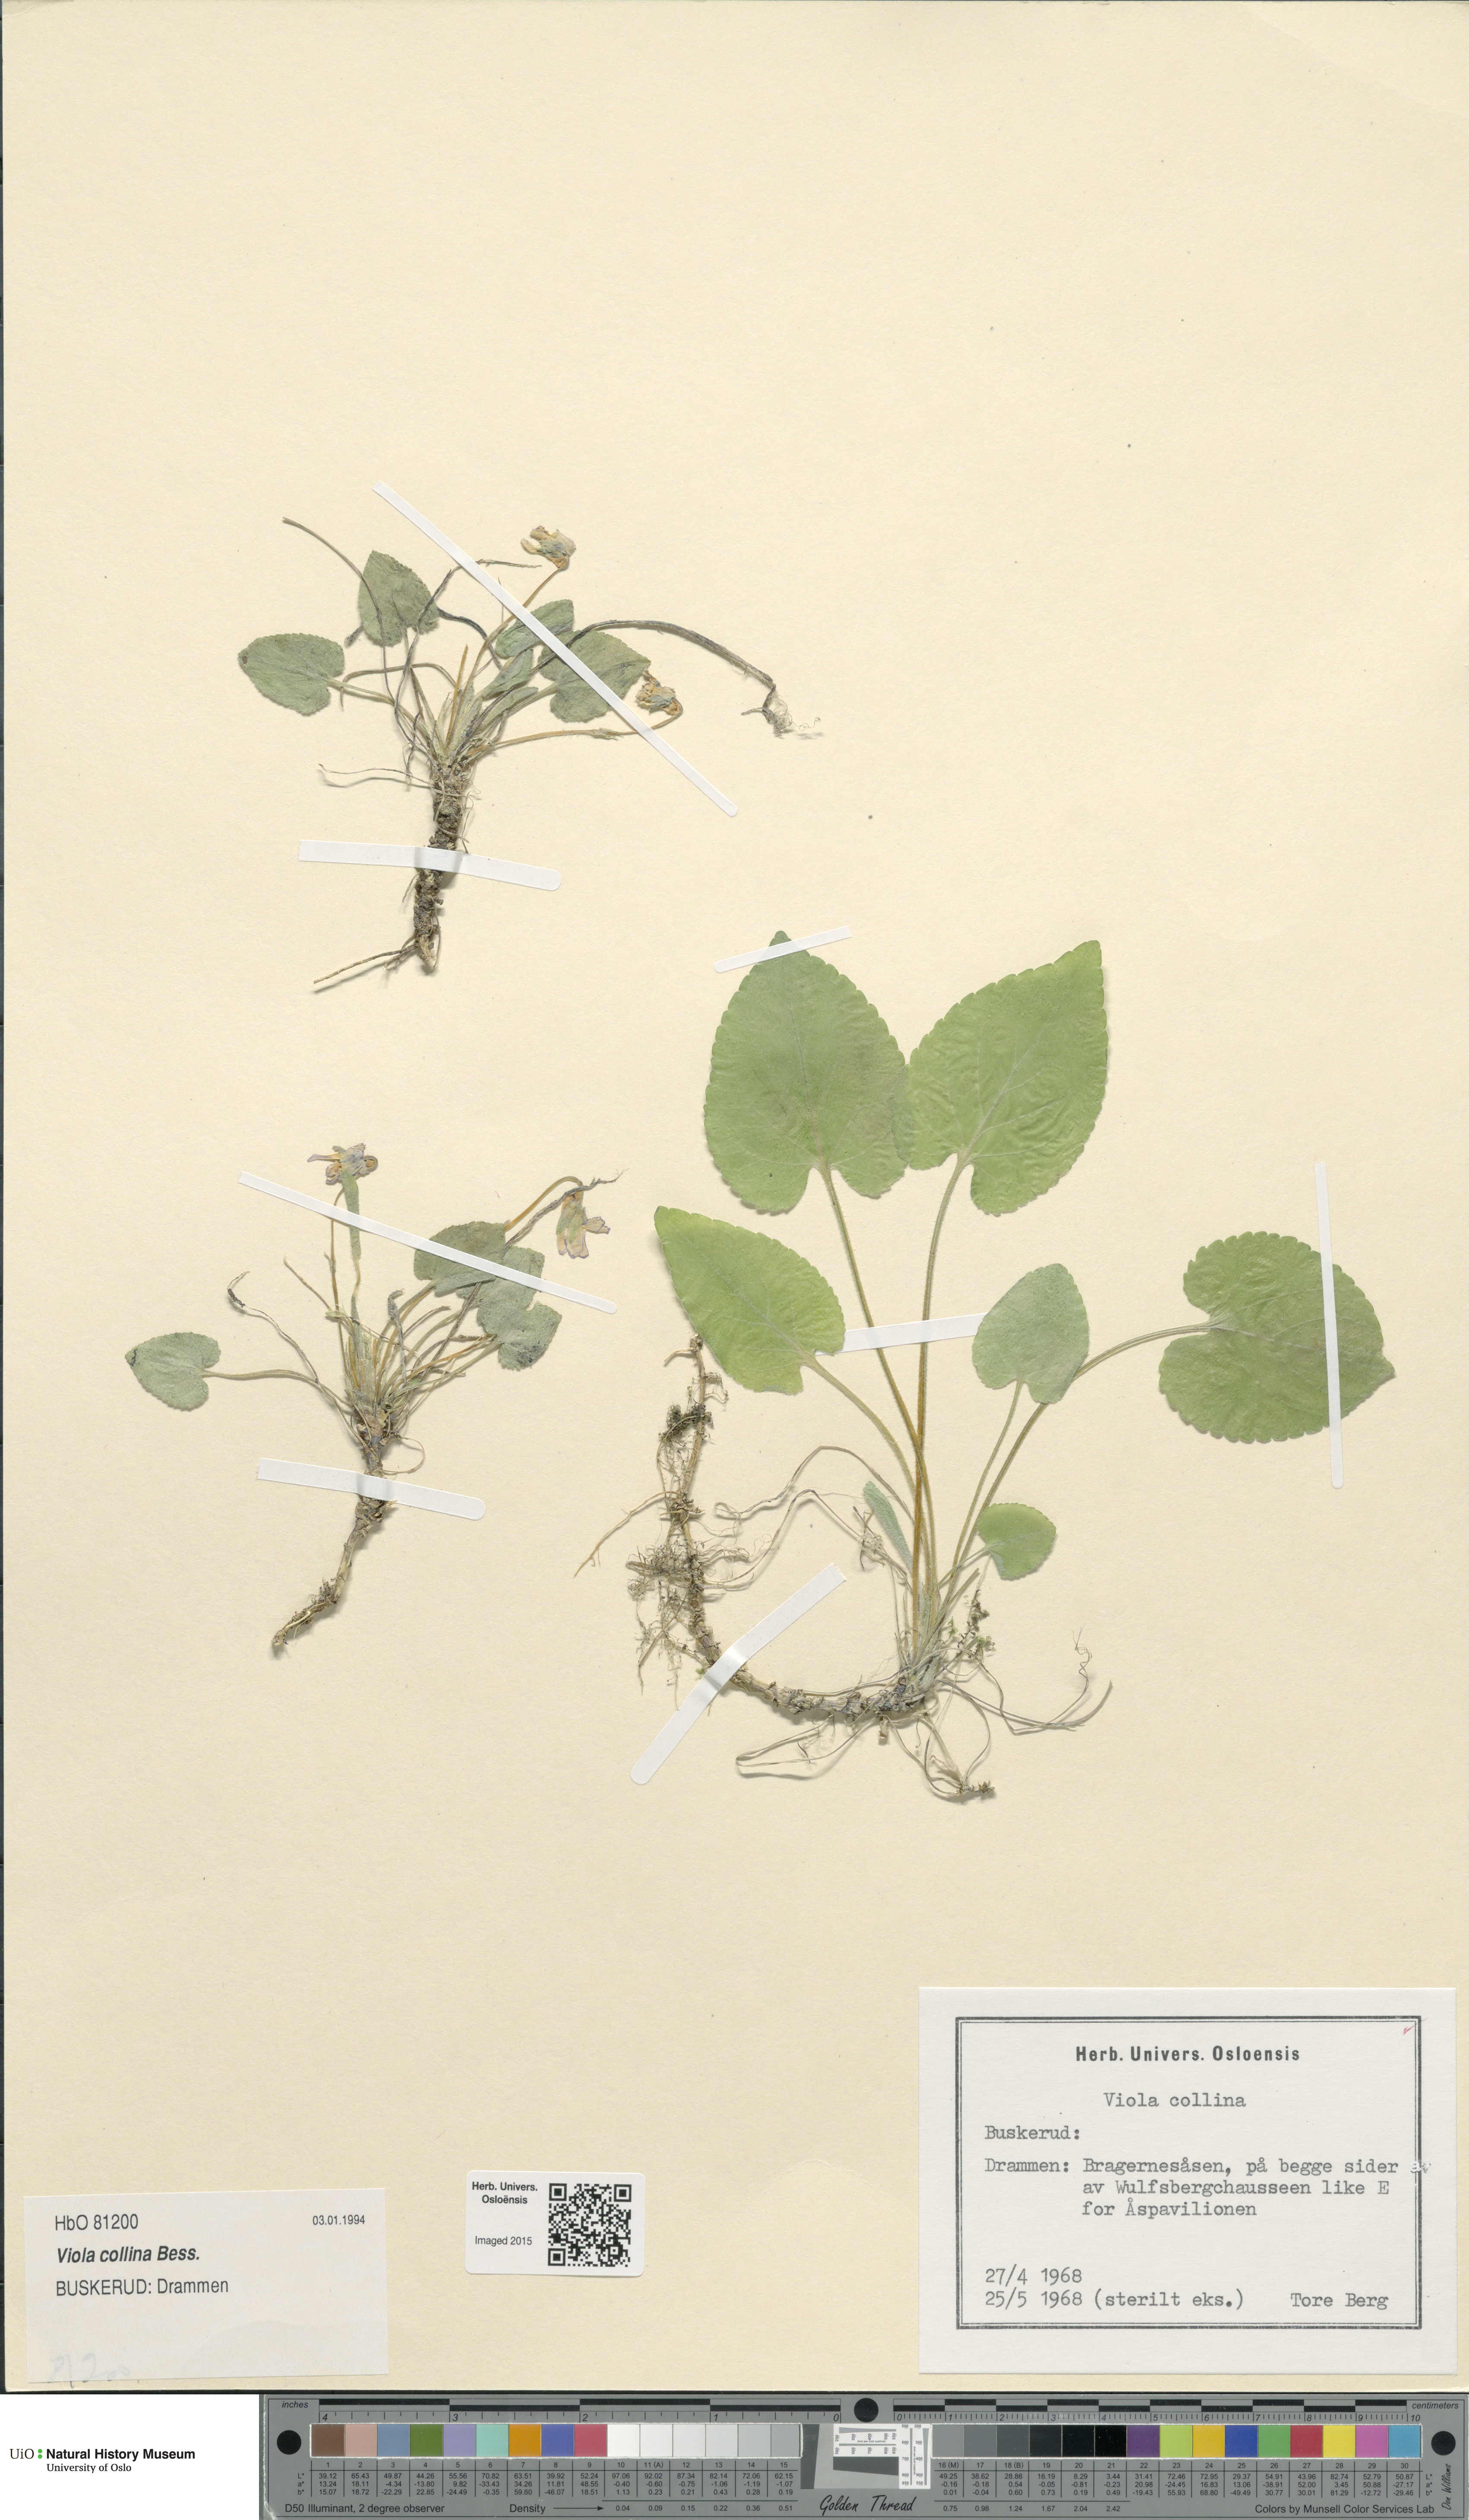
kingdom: Plantae
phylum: Tracheophyta
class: Magnoliopsida
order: Malpighiales
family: Violaceae
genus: Viola
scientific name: Viola collina
